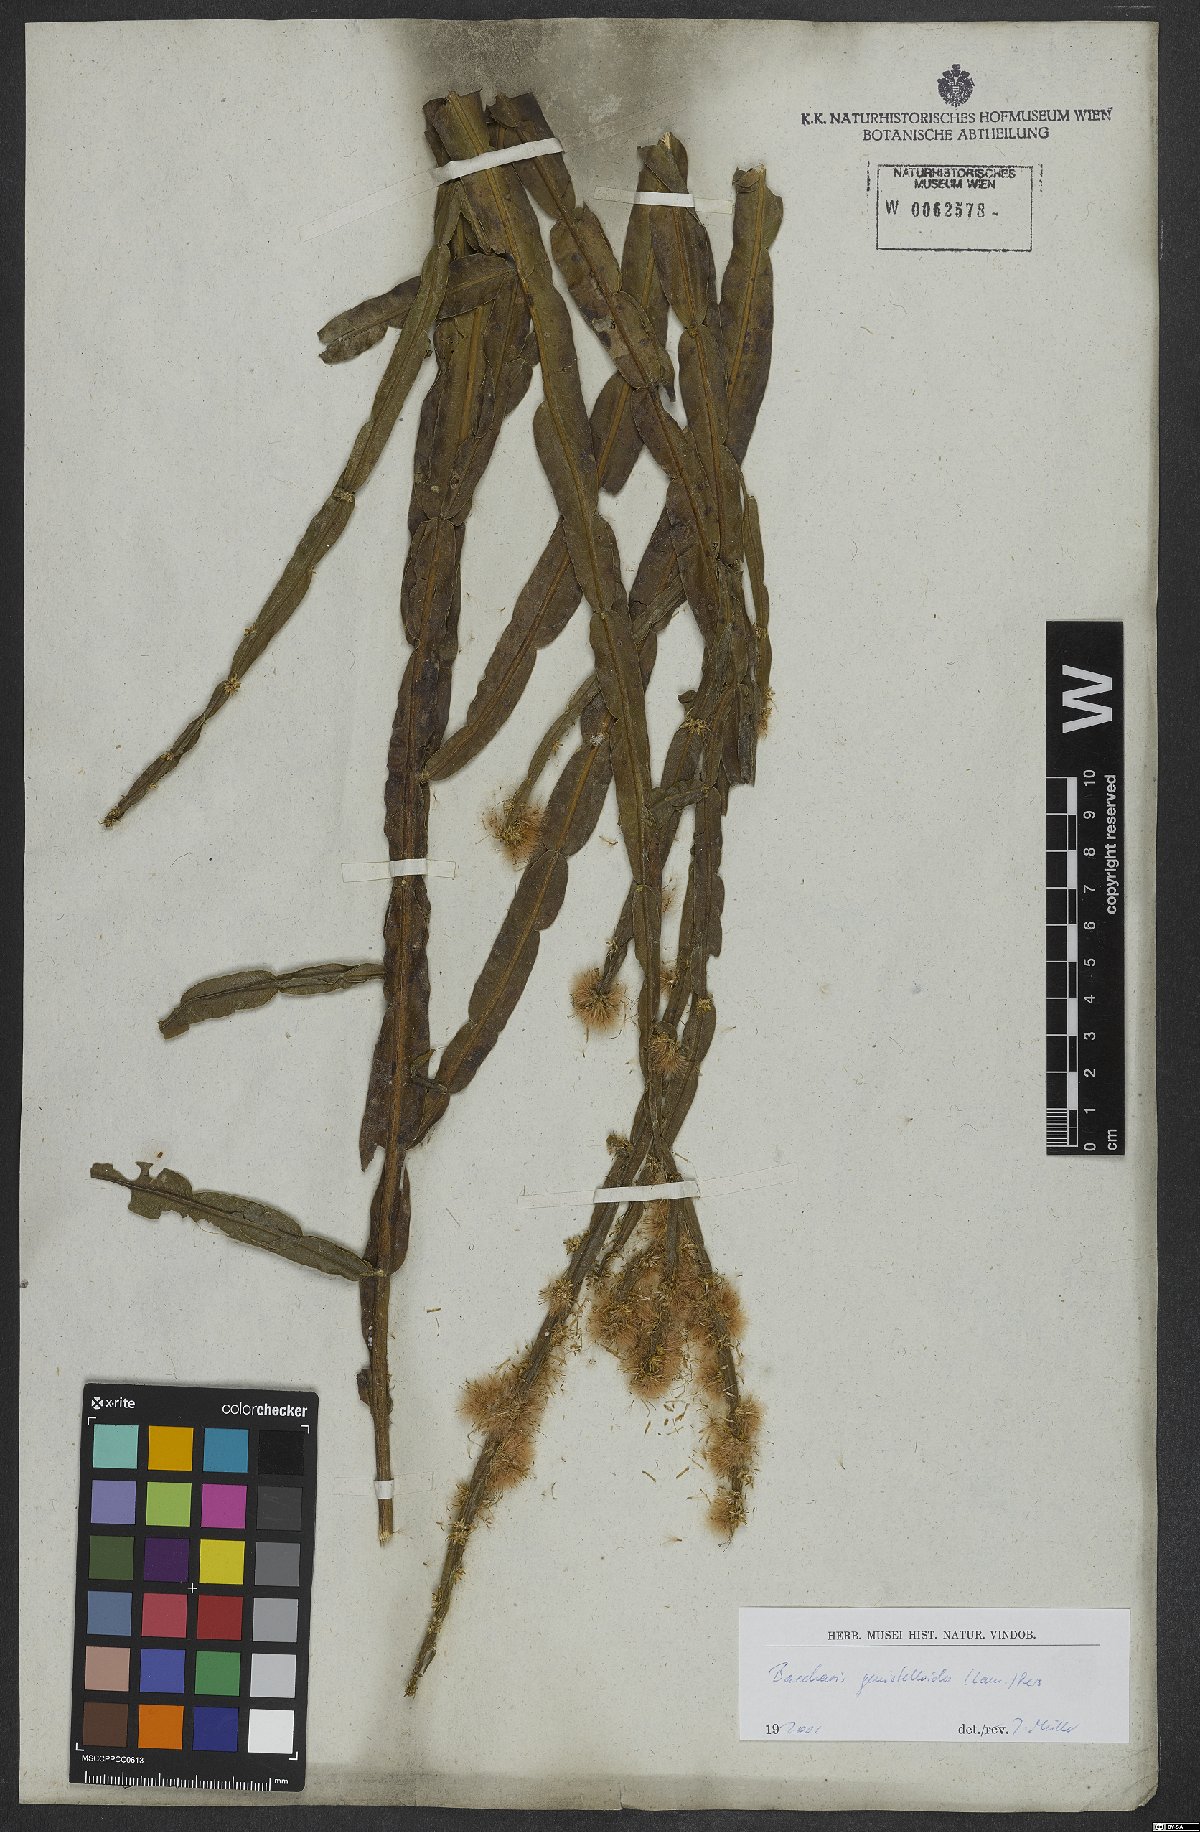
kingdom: Plantae
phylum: Tracheophyta
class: Magnoliopsida
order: Asterales
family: Asteraceae
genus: Baccharis
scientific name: Baccharis genistelloides
